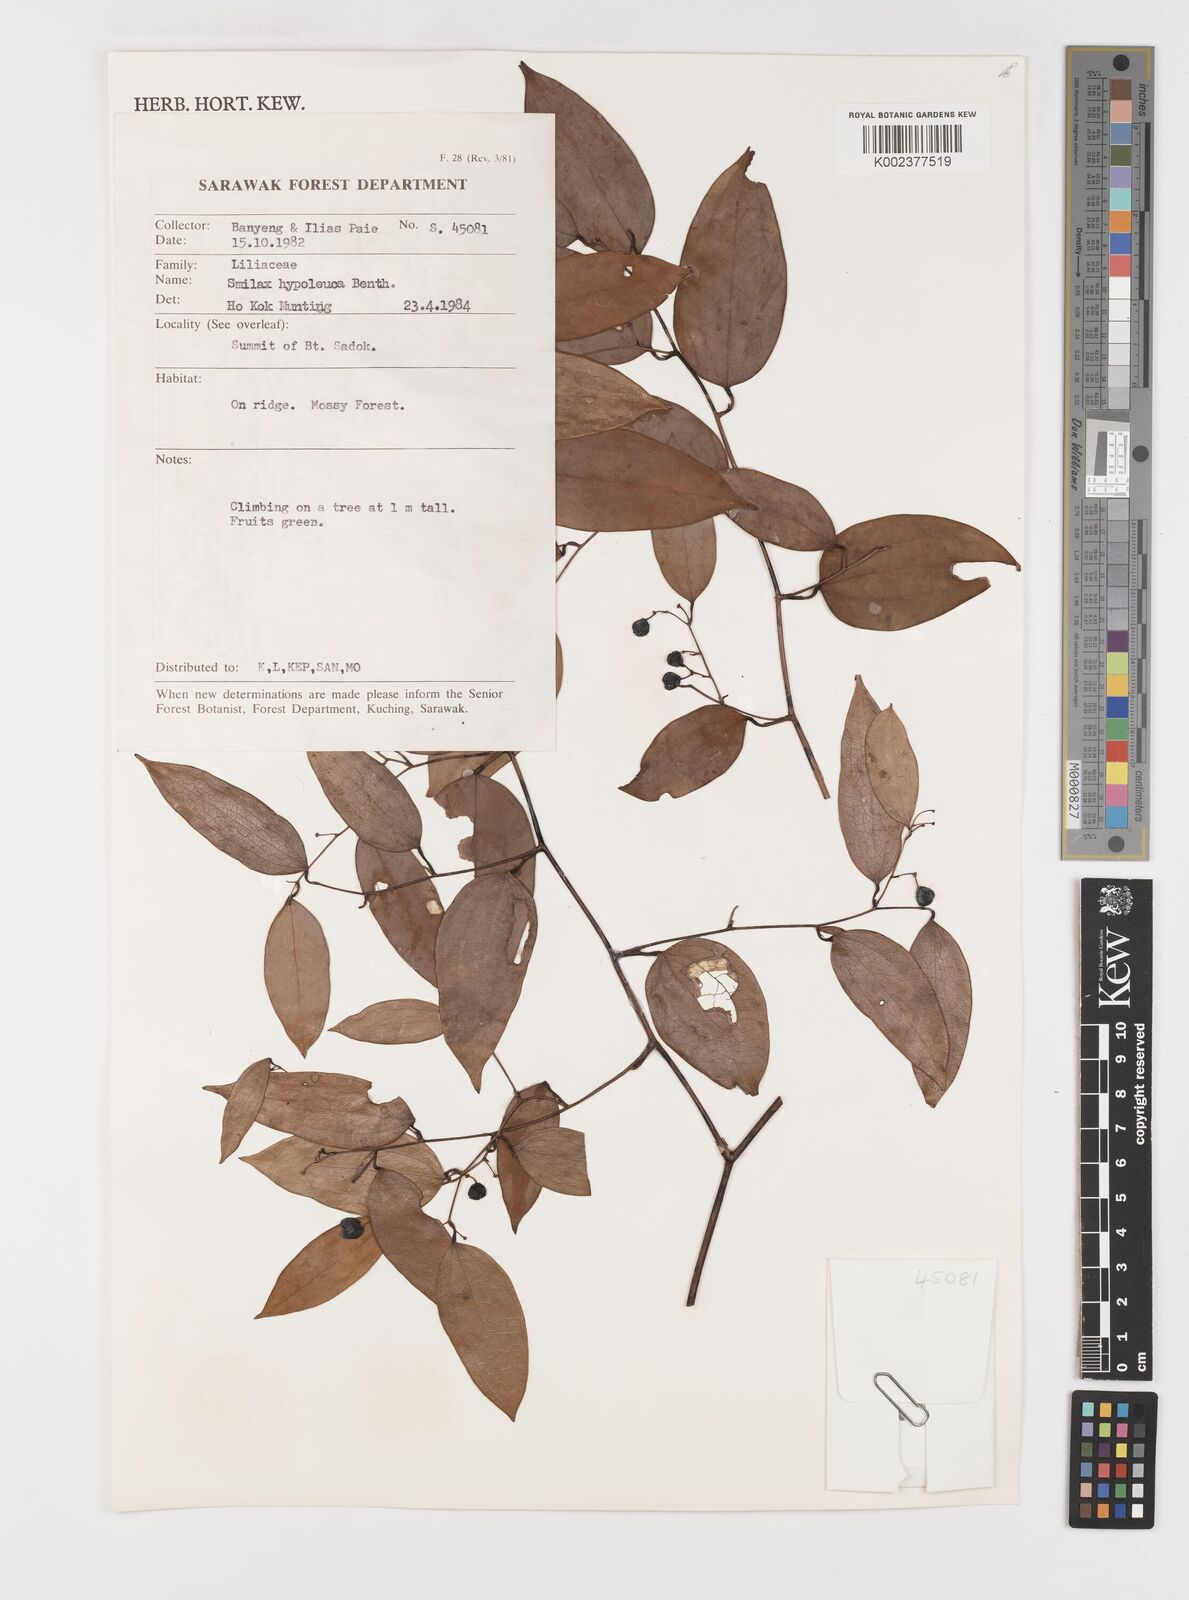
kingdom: Plantae
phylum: Tracheophyta
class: Liliopsida
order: Liliales
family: Smilacaceae
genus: Smilax
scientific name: Smilax hypoglauca
